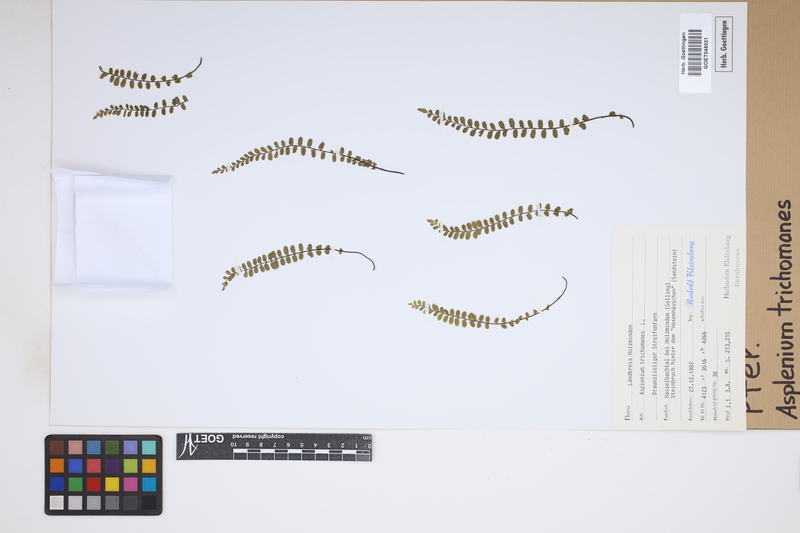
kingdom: Plantae
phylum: Tracheophyta
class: Polypodiopsida
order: Polypodiales
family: Aspleniaceae
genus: Asplenium
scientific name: Asplenium trichomanes
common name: Maidenhair spleenwort
